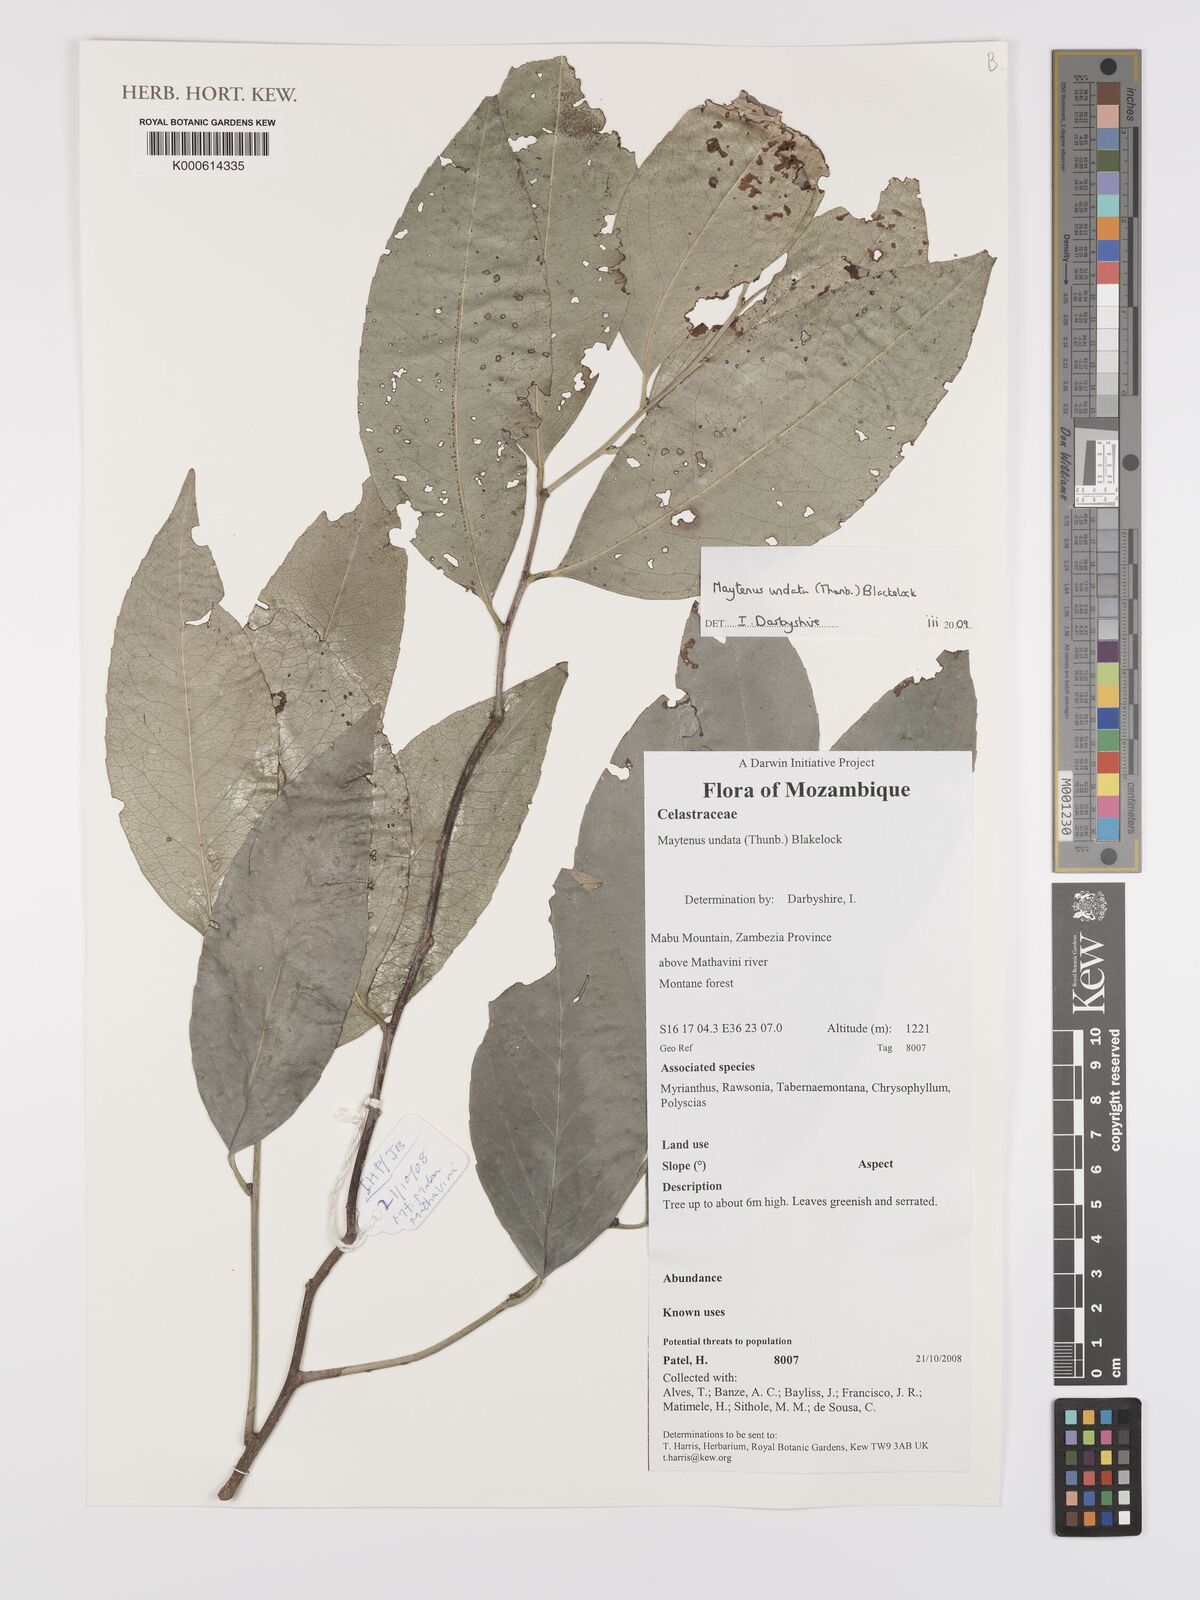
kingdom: Plantae
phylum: Tracheophyta
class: Magnoliopsida
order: Celastrales
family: Celastraceae
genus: Gymnosporia
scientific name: Gymnosporia undata
